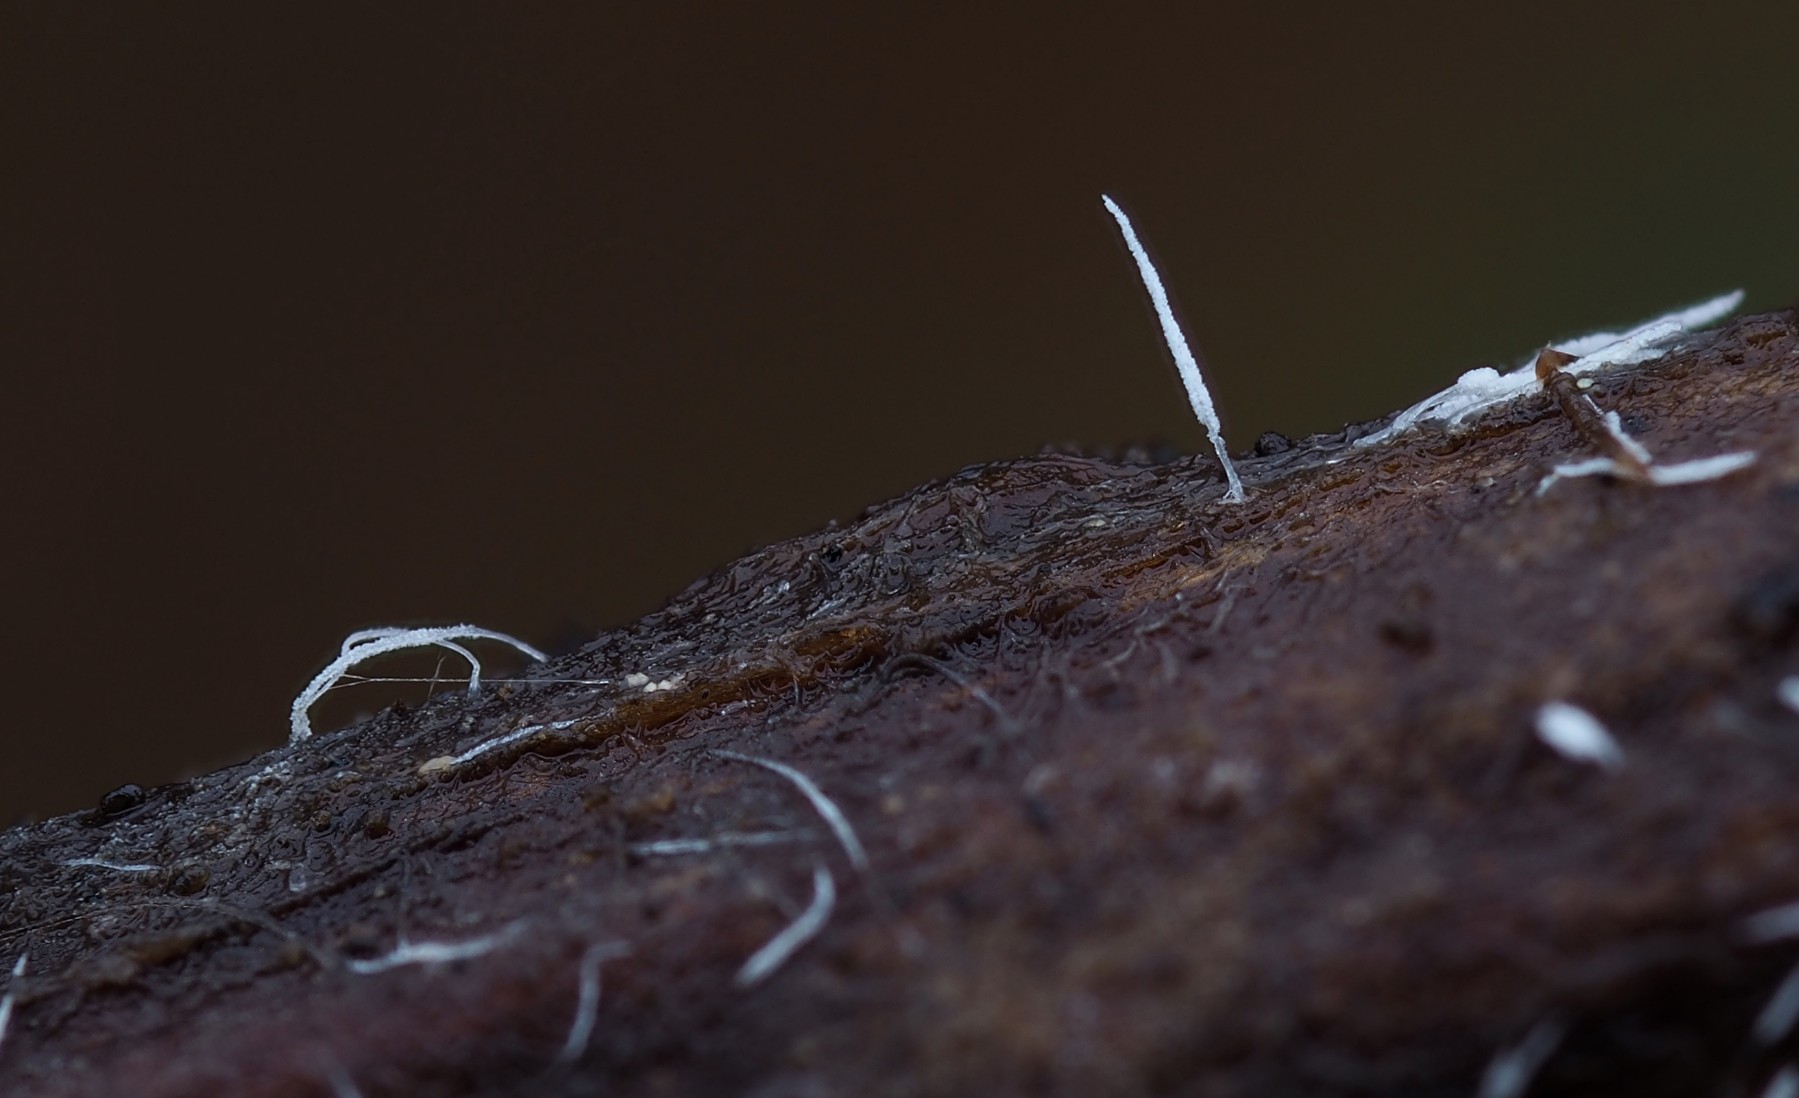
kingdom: Fungi
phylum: Basidiomycota
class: Agaricomycetes
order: Gomphales
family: Gomphaceae
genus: Ceratellopsis
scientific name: Ceratellopsis acuminata
